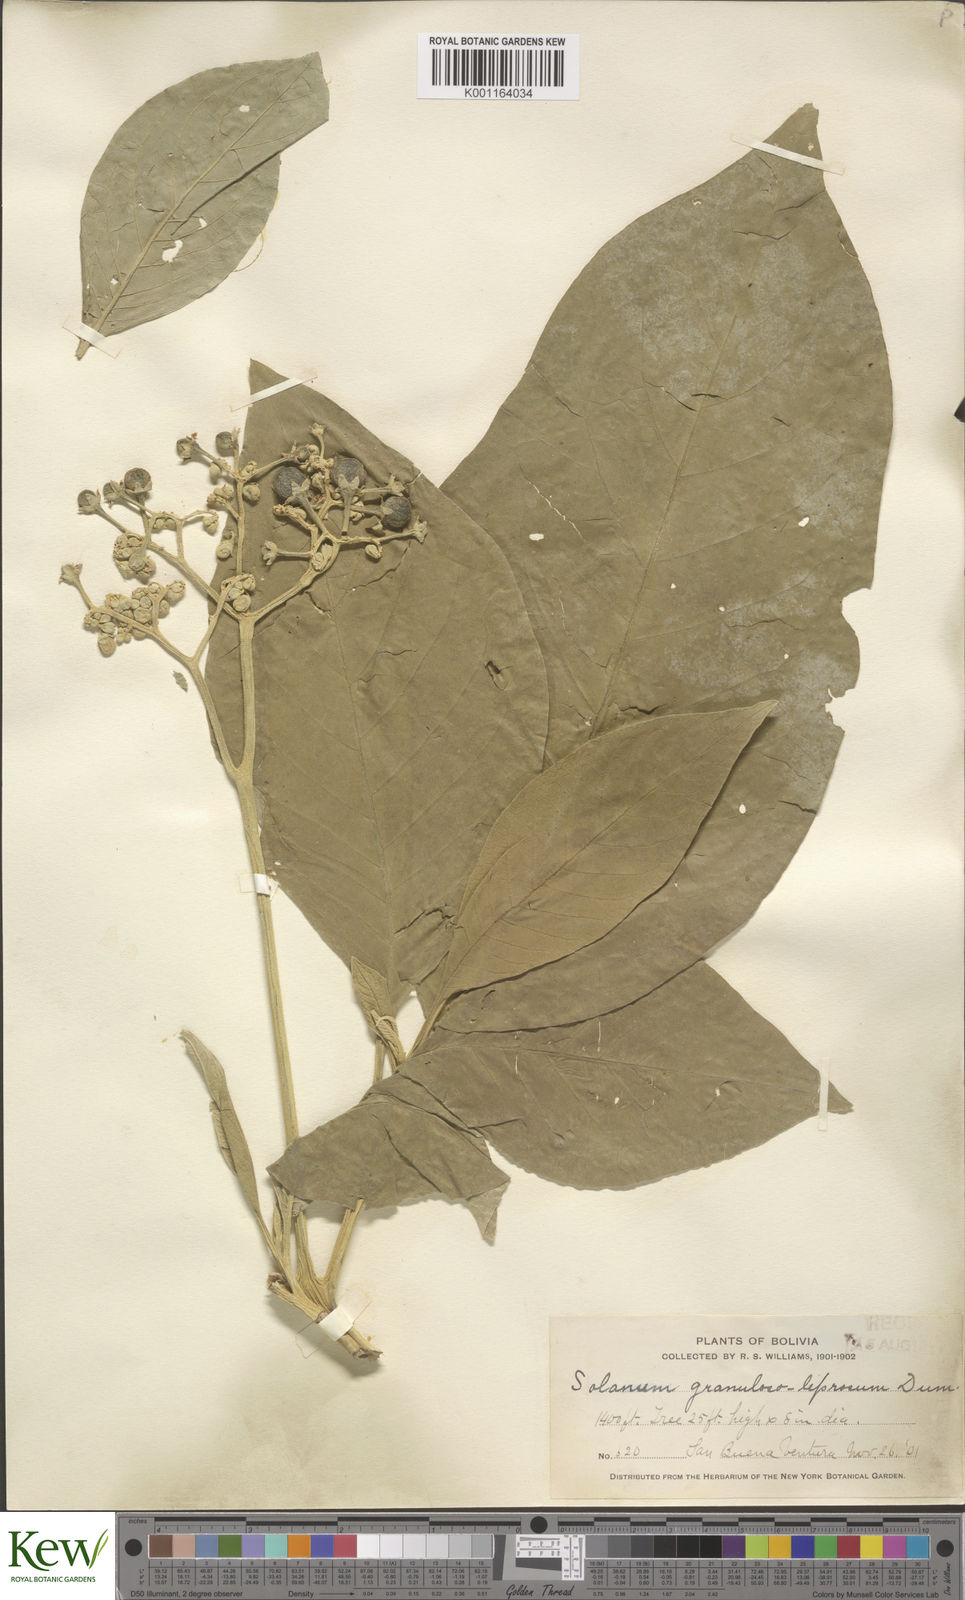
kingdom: Plantae
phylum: Tracheophyta
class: Magnoliopsida
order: Solanales
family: Solanaceae
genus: Solanum
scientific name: Solanum granulosoleprosum
